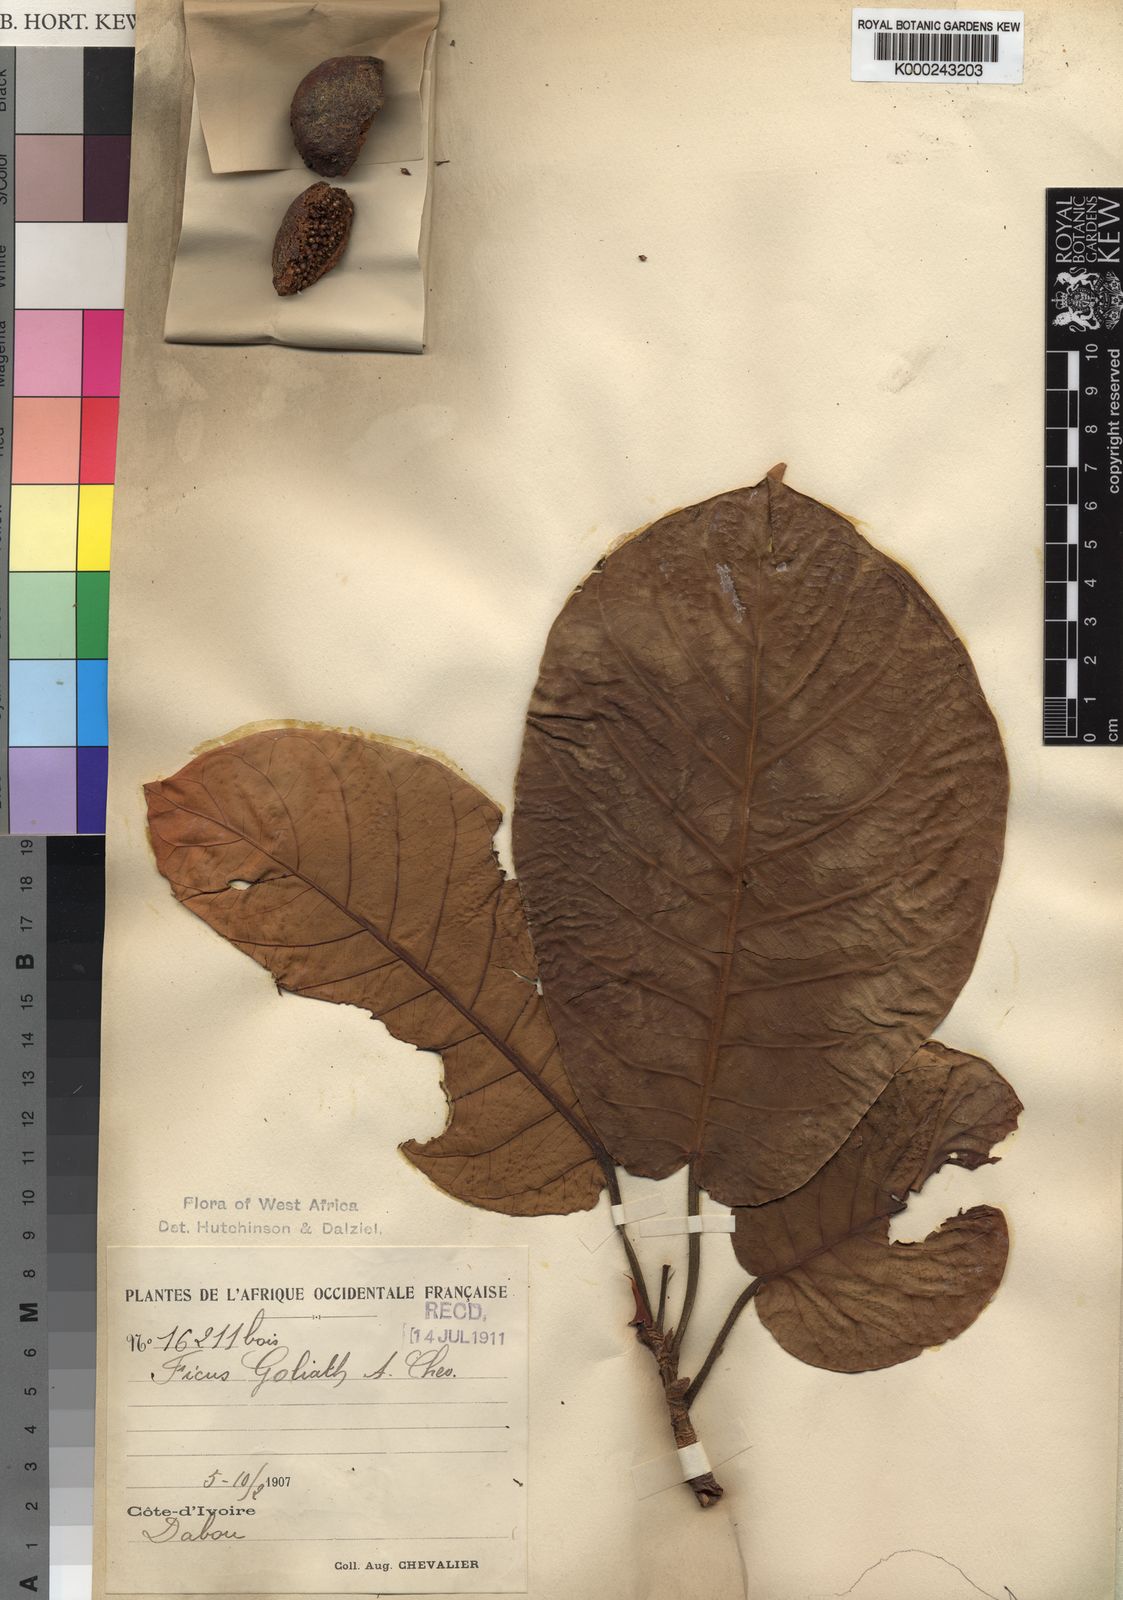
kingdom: Plantae
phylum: Tracheophyta
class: Magnoliopsida
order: Rosales
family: Moraceae
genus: Ficus
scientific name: Ficus recurvata
